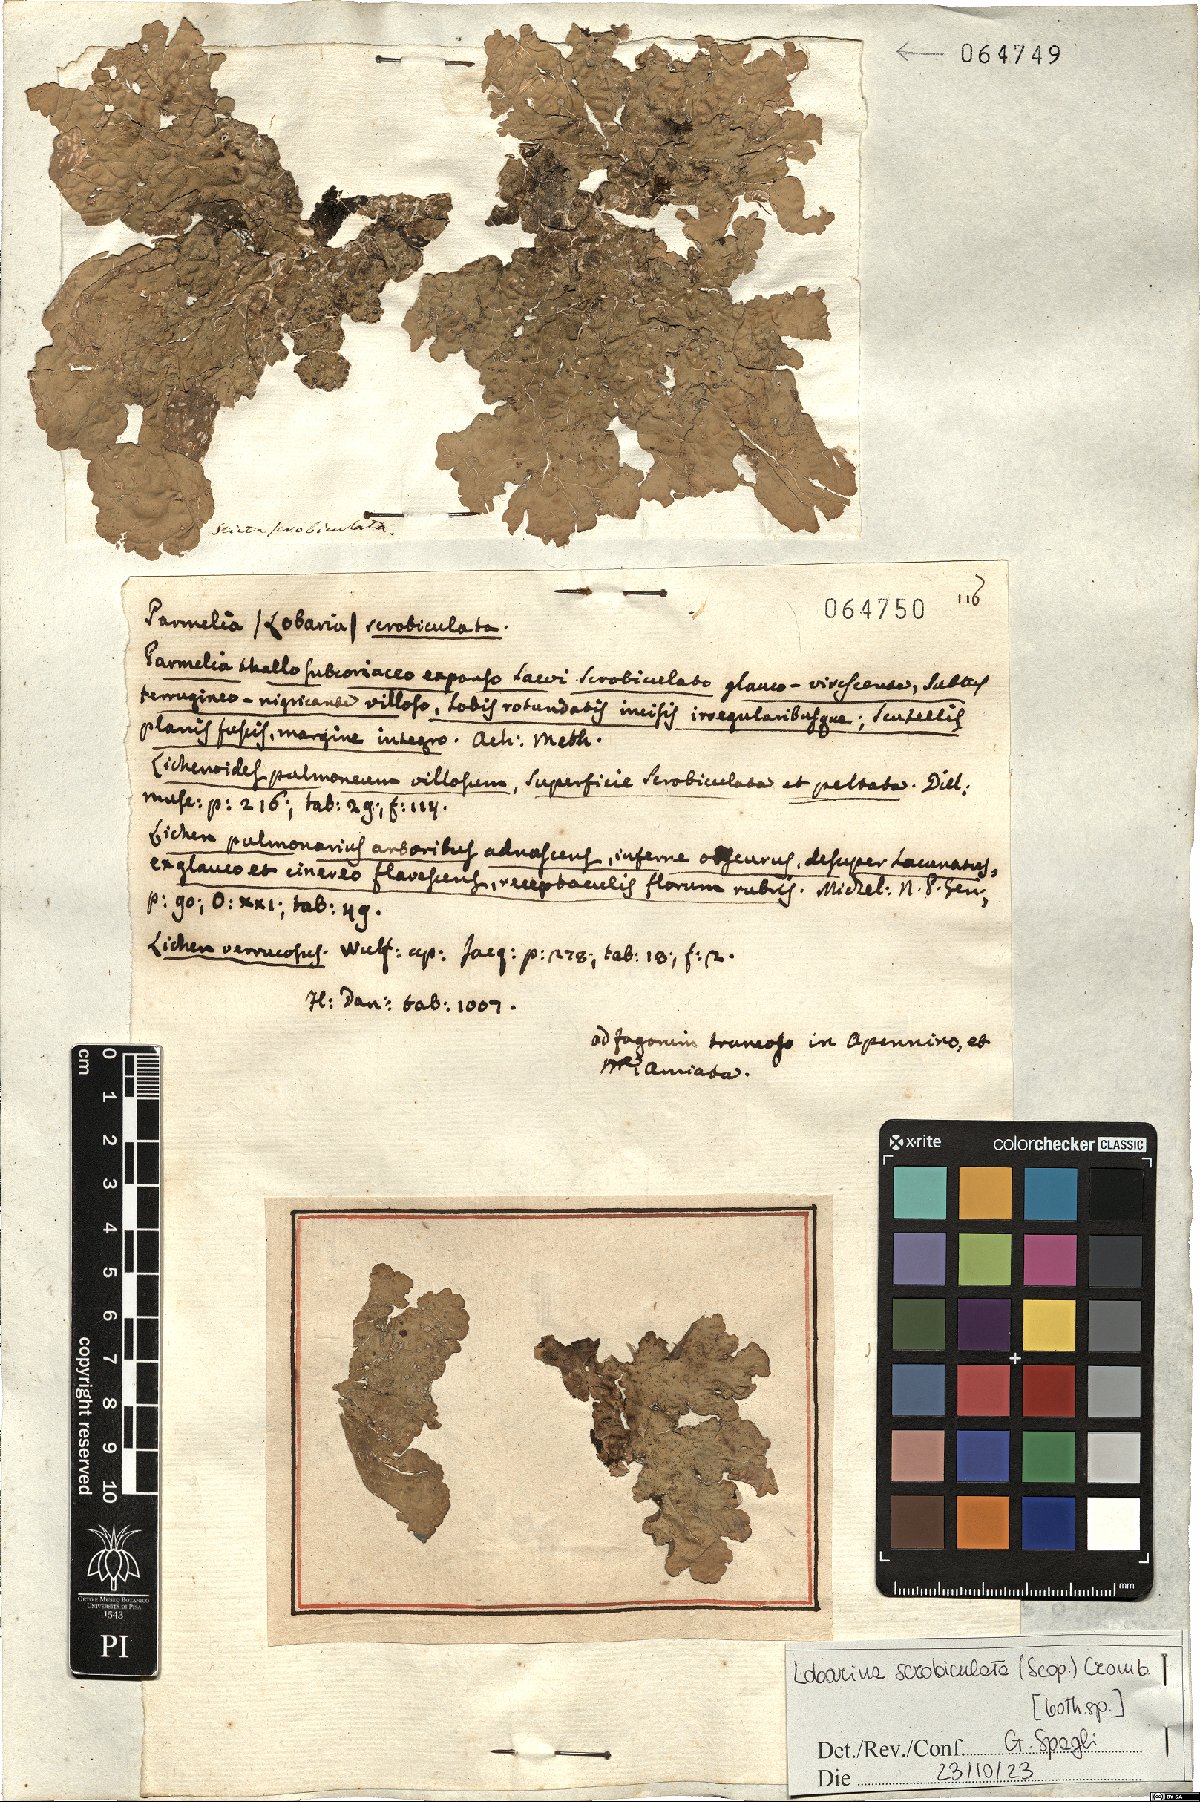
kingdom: Fungi
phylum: Ascomycota
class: Lecanoromycetes
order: Peltigerales
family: Lobariaceae
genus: Lobarina
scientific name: Lobarina scrobiculata
